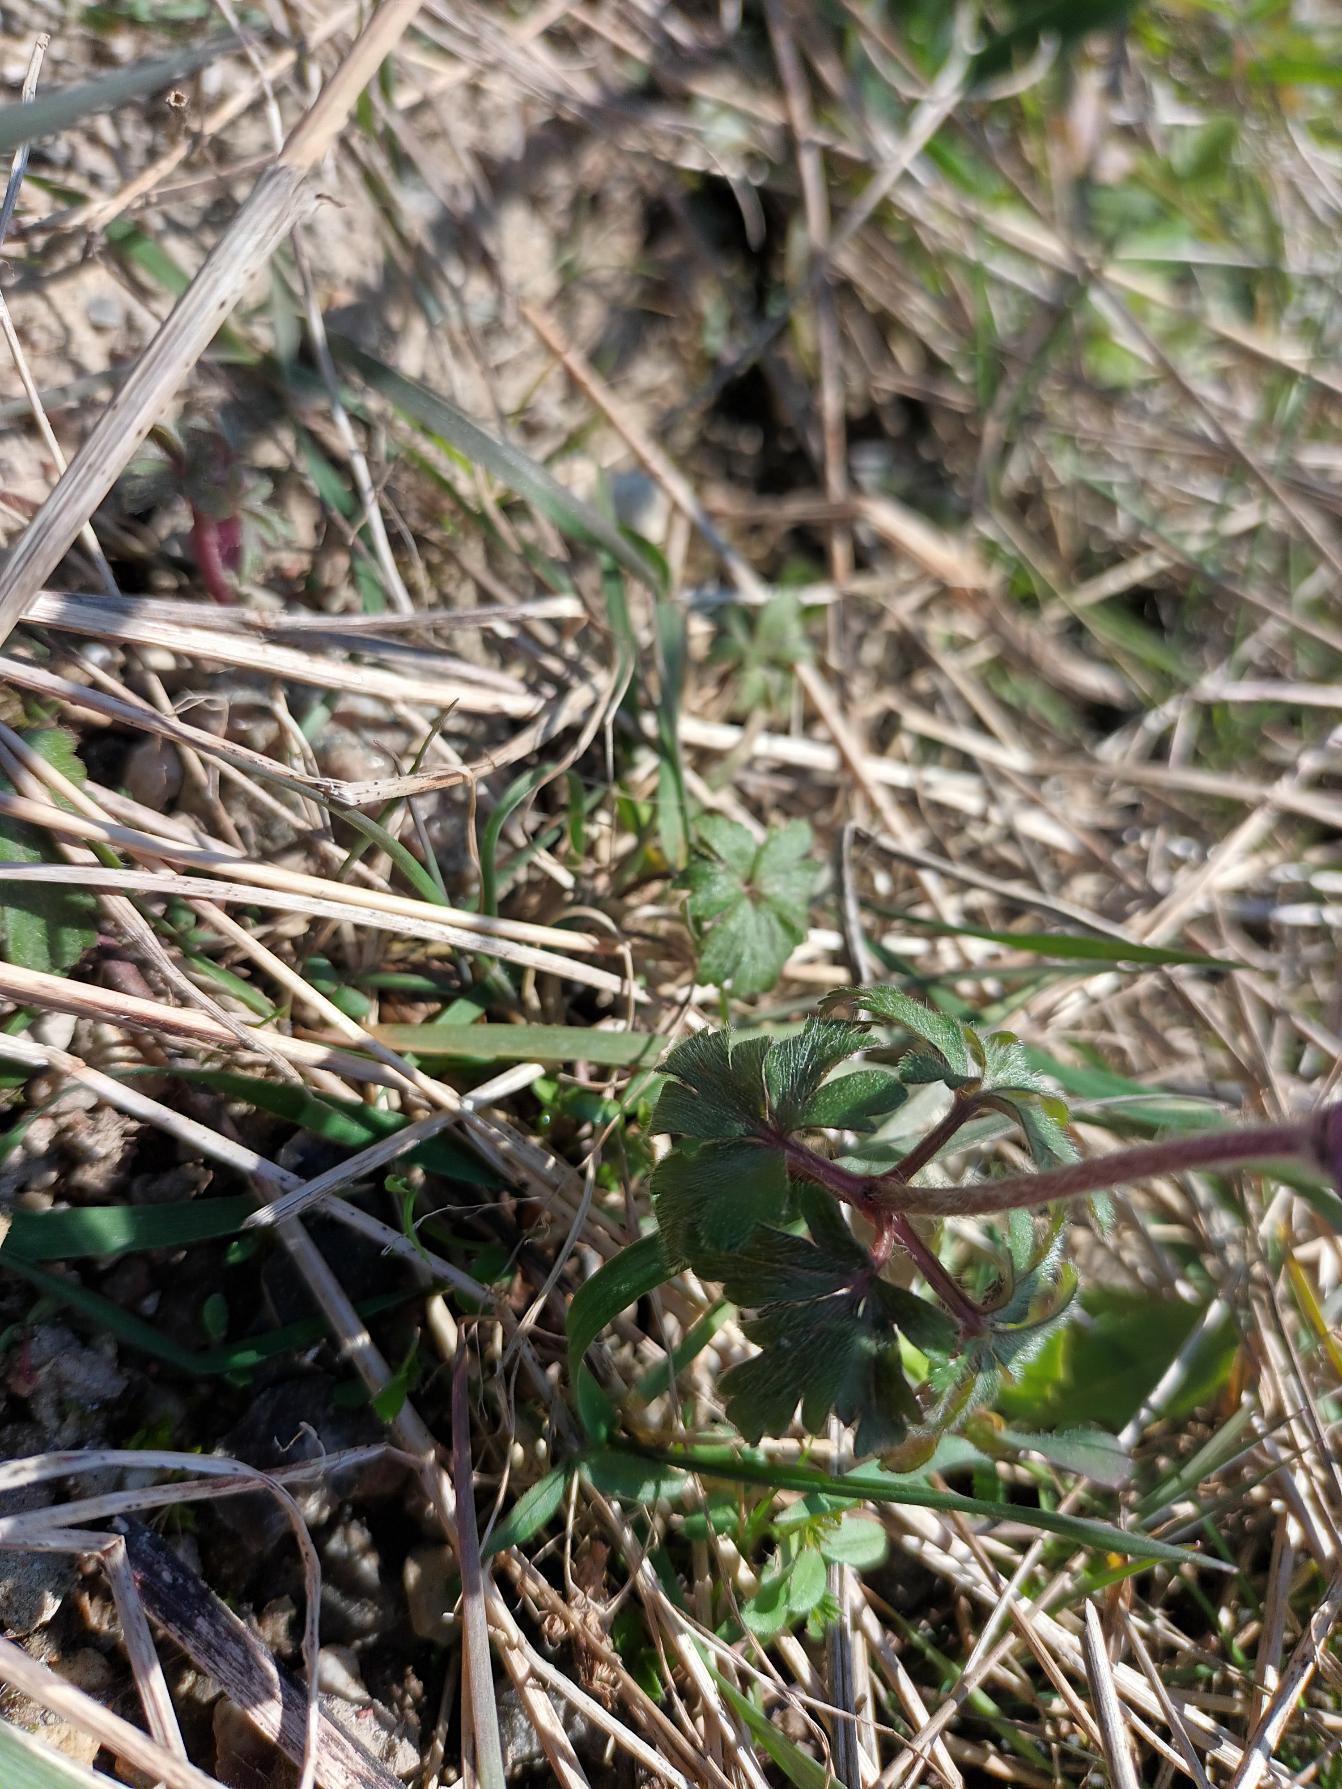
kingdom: Plantae
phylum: Tracheophyta
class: Magnoliopsida
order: Ranunculales
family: Ranunculaceae
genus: Anemone
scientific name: Anemone blanda
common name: Balkan-anemone
